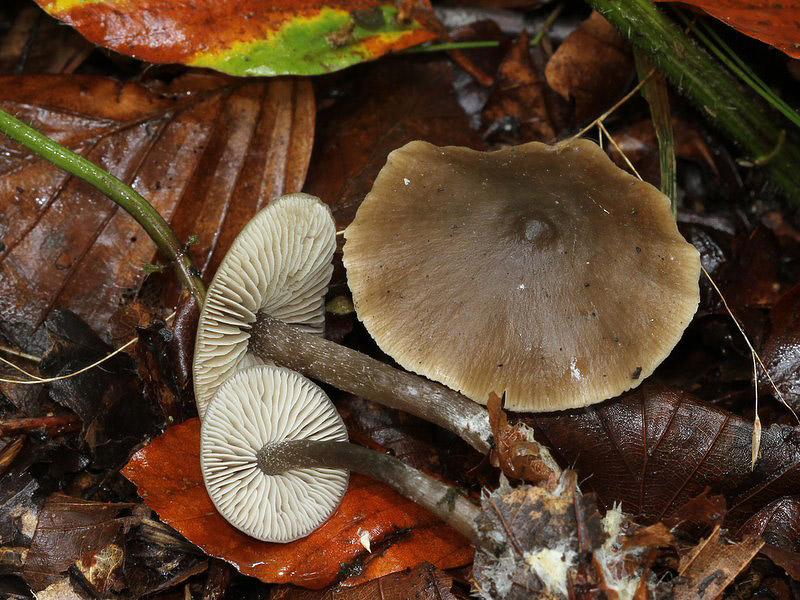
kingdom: Fungi
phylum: Basidiomycota
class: Agaricomycetes
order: Agaricales
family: Lyophyllaceae
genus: Myochromella
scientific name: Myochromella boudieri
